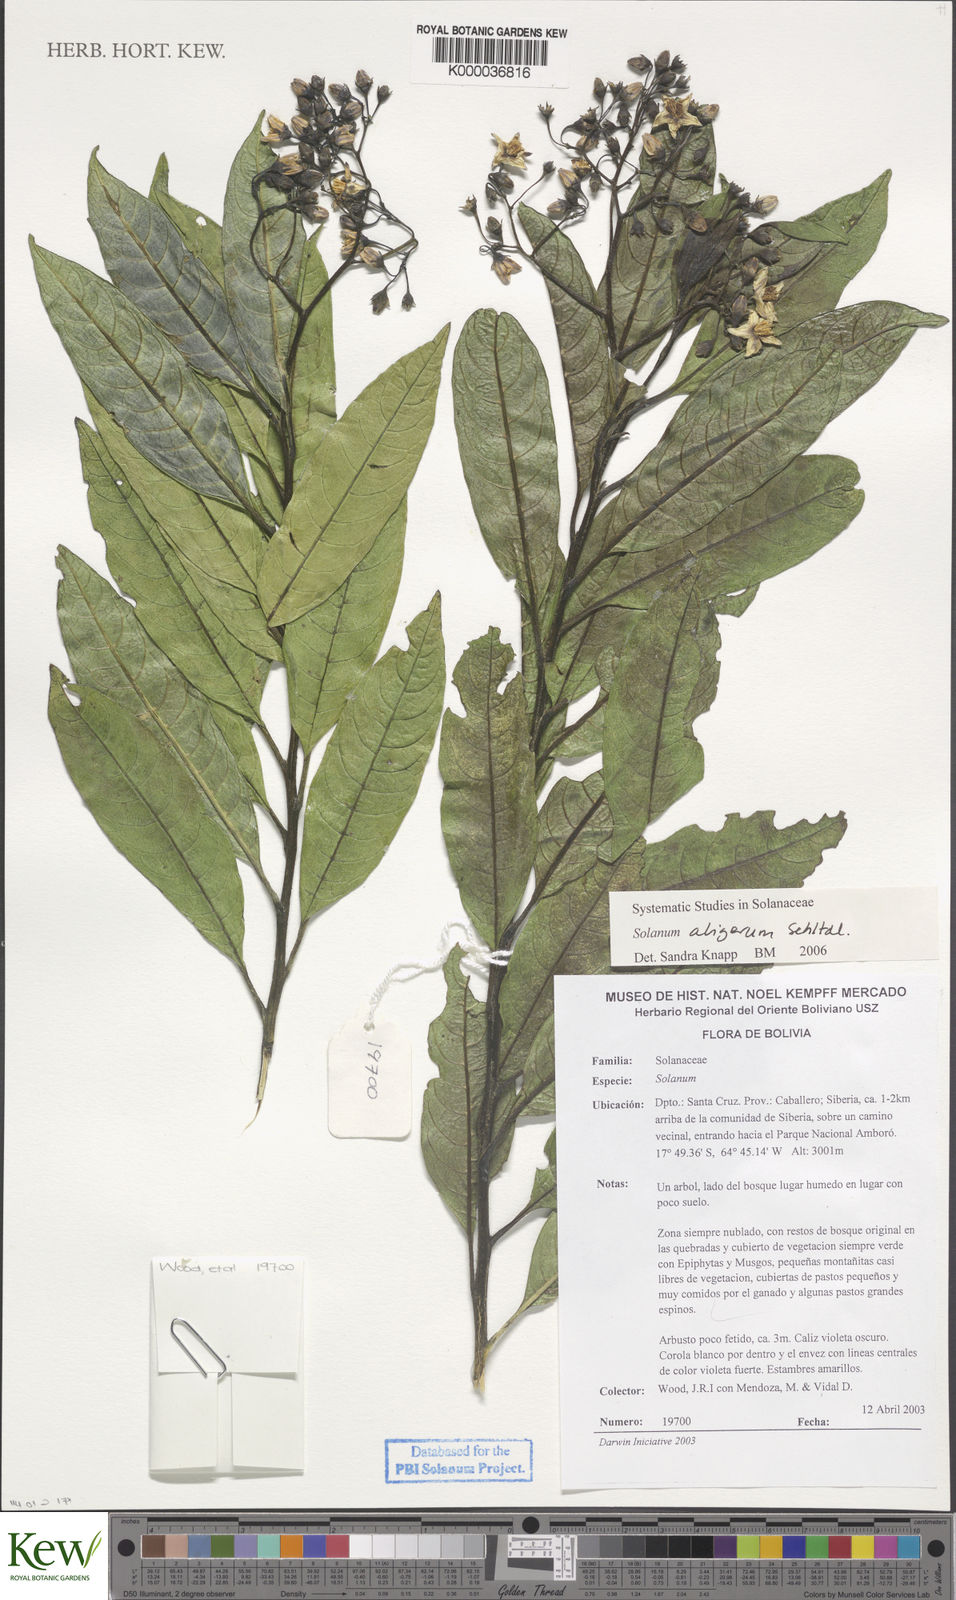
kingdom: Plantae
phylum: Tracheophyta
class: Magnoliopsida
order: Solanales
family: Solanaceae
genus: Solanum
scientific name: Solanum aligerum
